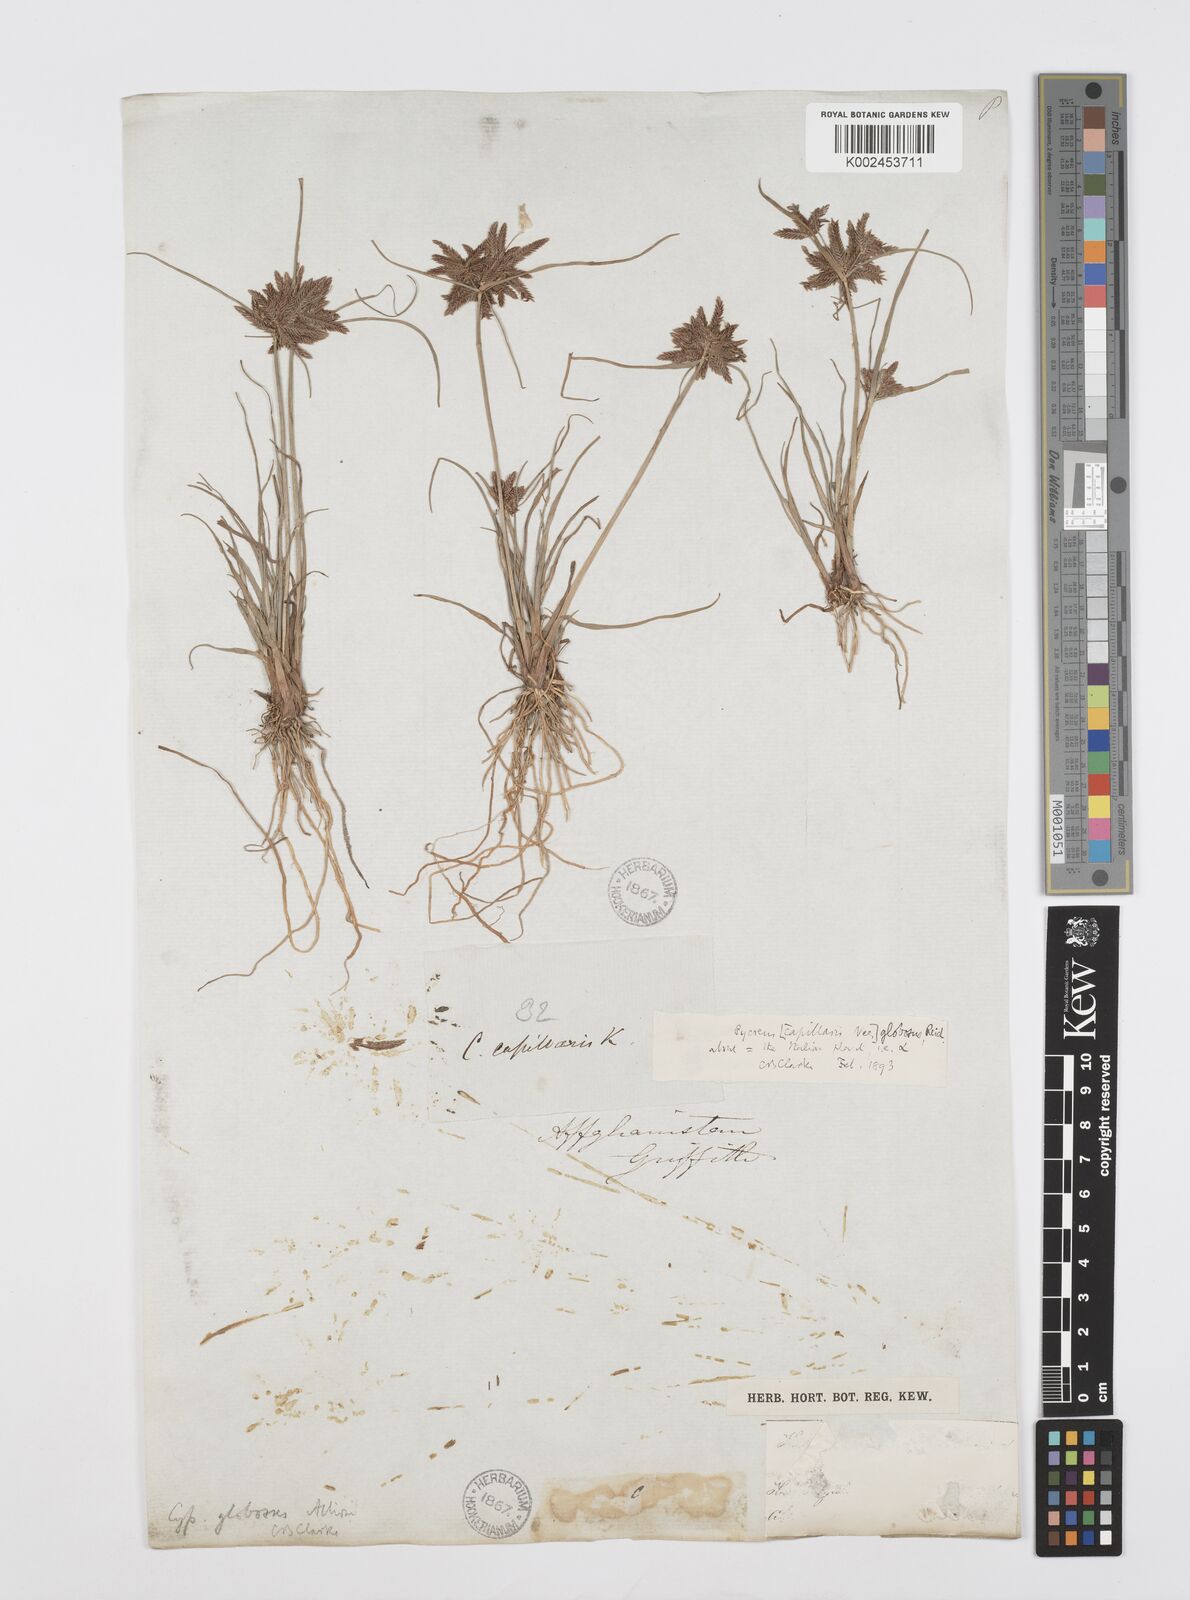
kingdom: Plantae
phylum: Tracheophyta
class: Liliopsida
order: Poales
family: Cyperaceae
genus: Cyperus
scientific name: Cyperus flavidus
